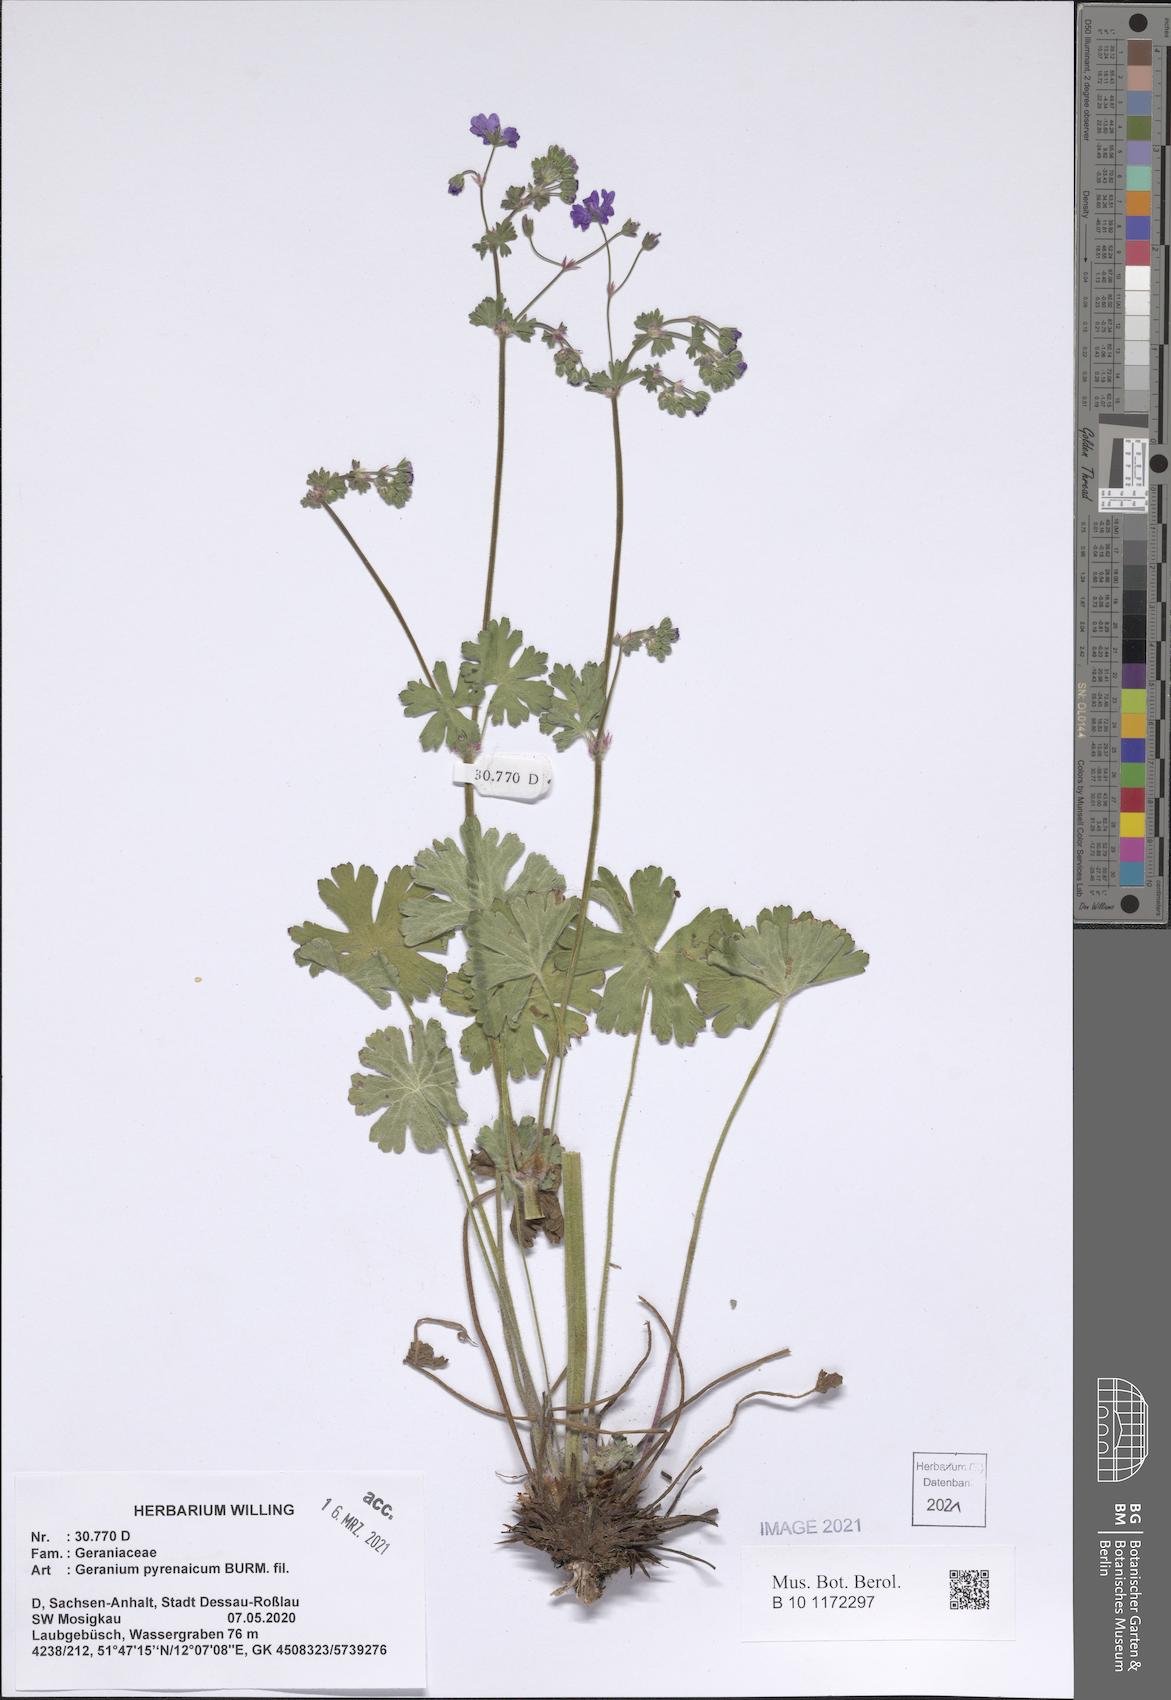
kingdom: Plantae
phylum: Tracheophyta
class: Magnoliopsida
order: Geraniales
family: Geraniaceae
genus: Geranium
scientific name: Geranium pyrenaicum
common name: Hedgerow crane's-bill
